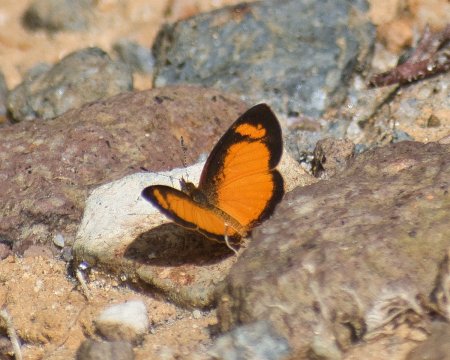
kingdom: Animalia
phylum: Arthropoda
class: Insecta
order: Lepidoptera
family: Nymphalidae
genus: Tegosa
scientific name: Tegosa anieta
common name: Black-bordered Crescent
